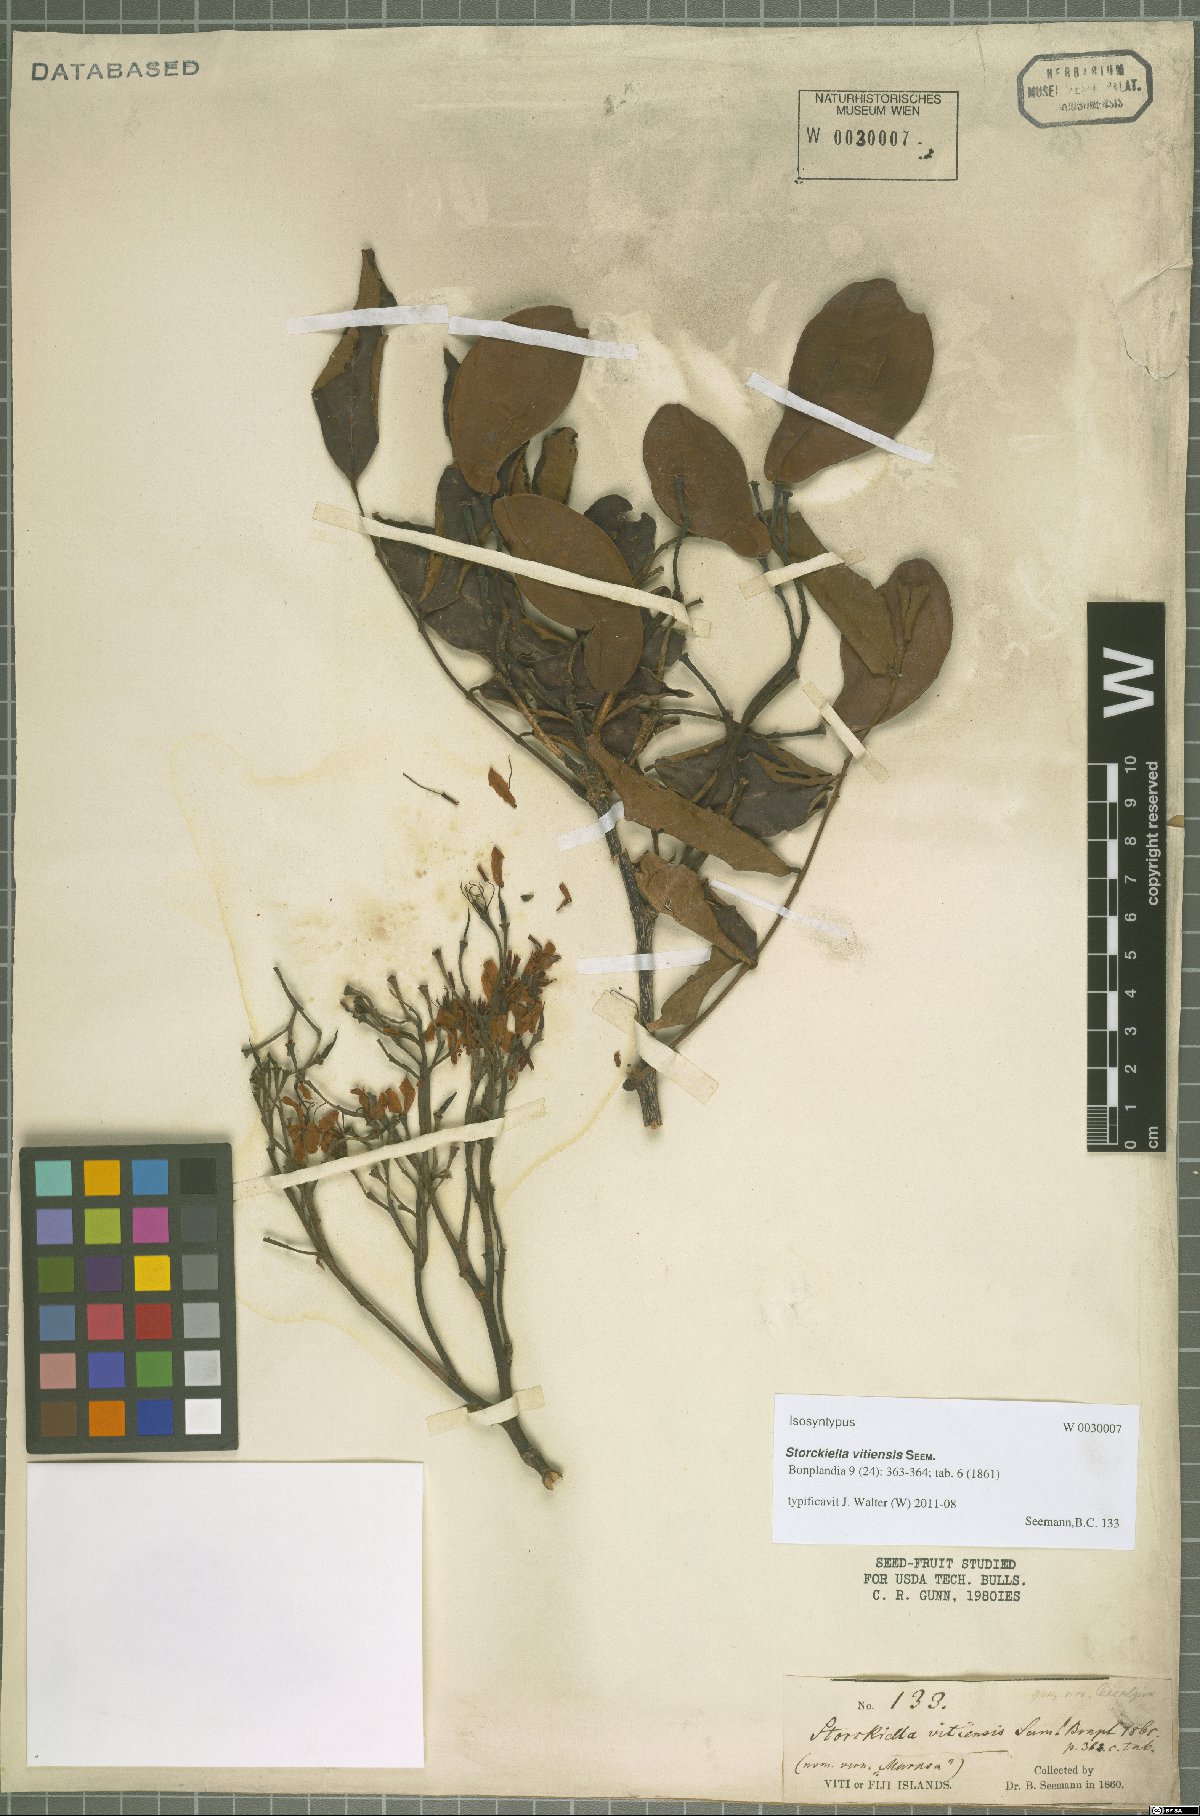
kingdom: Plantae
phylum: Tracheophyta
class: Magnoliopsida
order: Fabales
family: Fabaceae
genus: Storckiella
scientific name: Storckiella vitiensis
